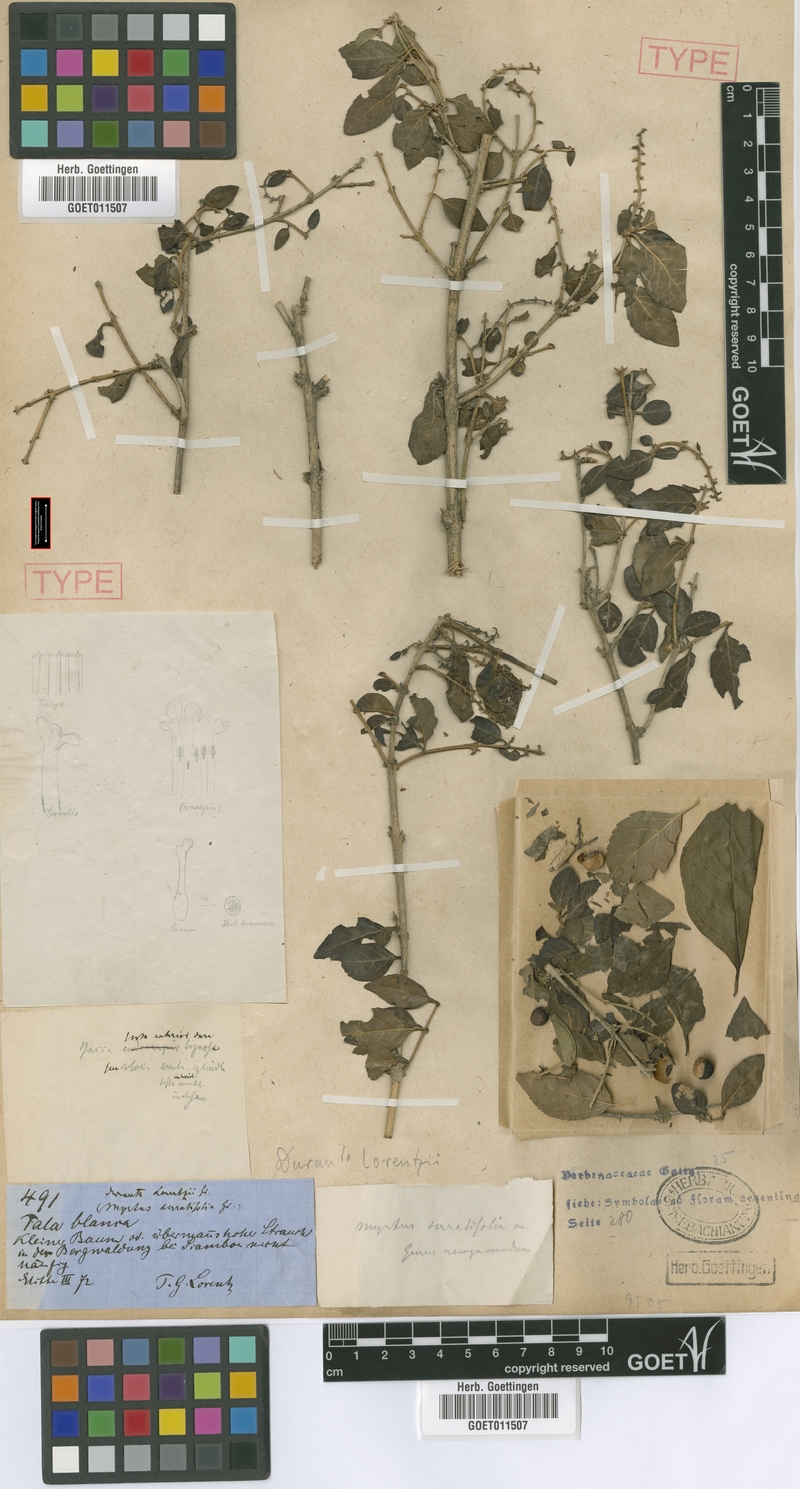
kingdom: Plantae
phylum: Tracheophyta
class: Magnoliopsida
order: Lamiales
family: Verbenaceae
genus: Duranta
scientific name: Duranta serratifolia
